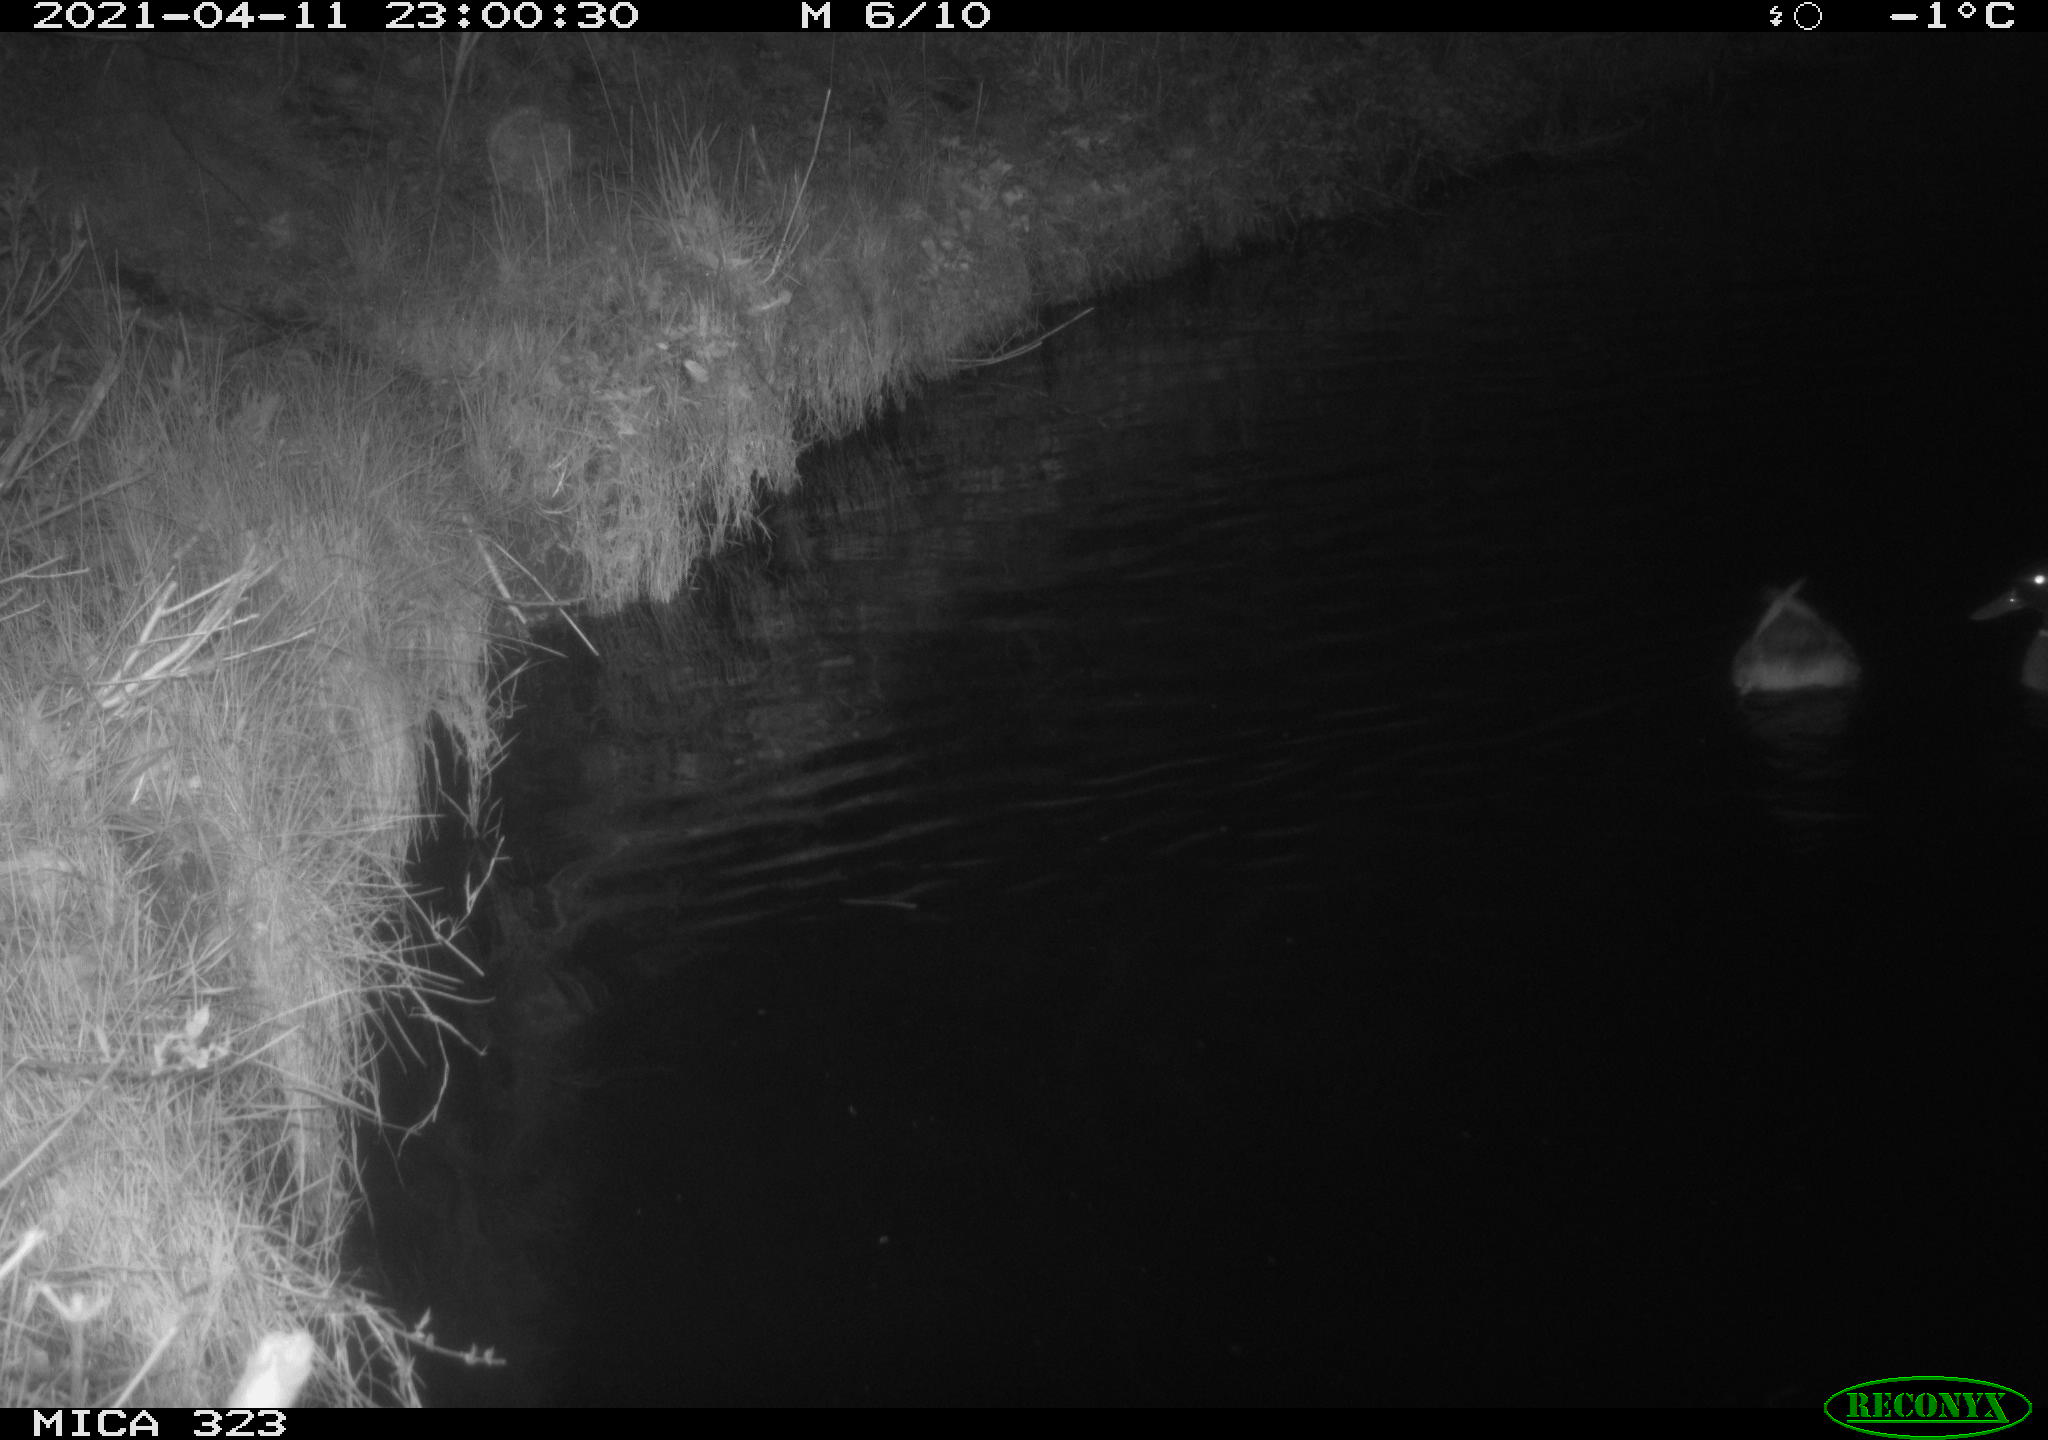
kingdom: Animalia
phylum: Chordata
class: Aves
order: Anseriformes
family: Anatidae
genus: Anas
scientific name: Anas platyrhynchos
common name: Mallard
